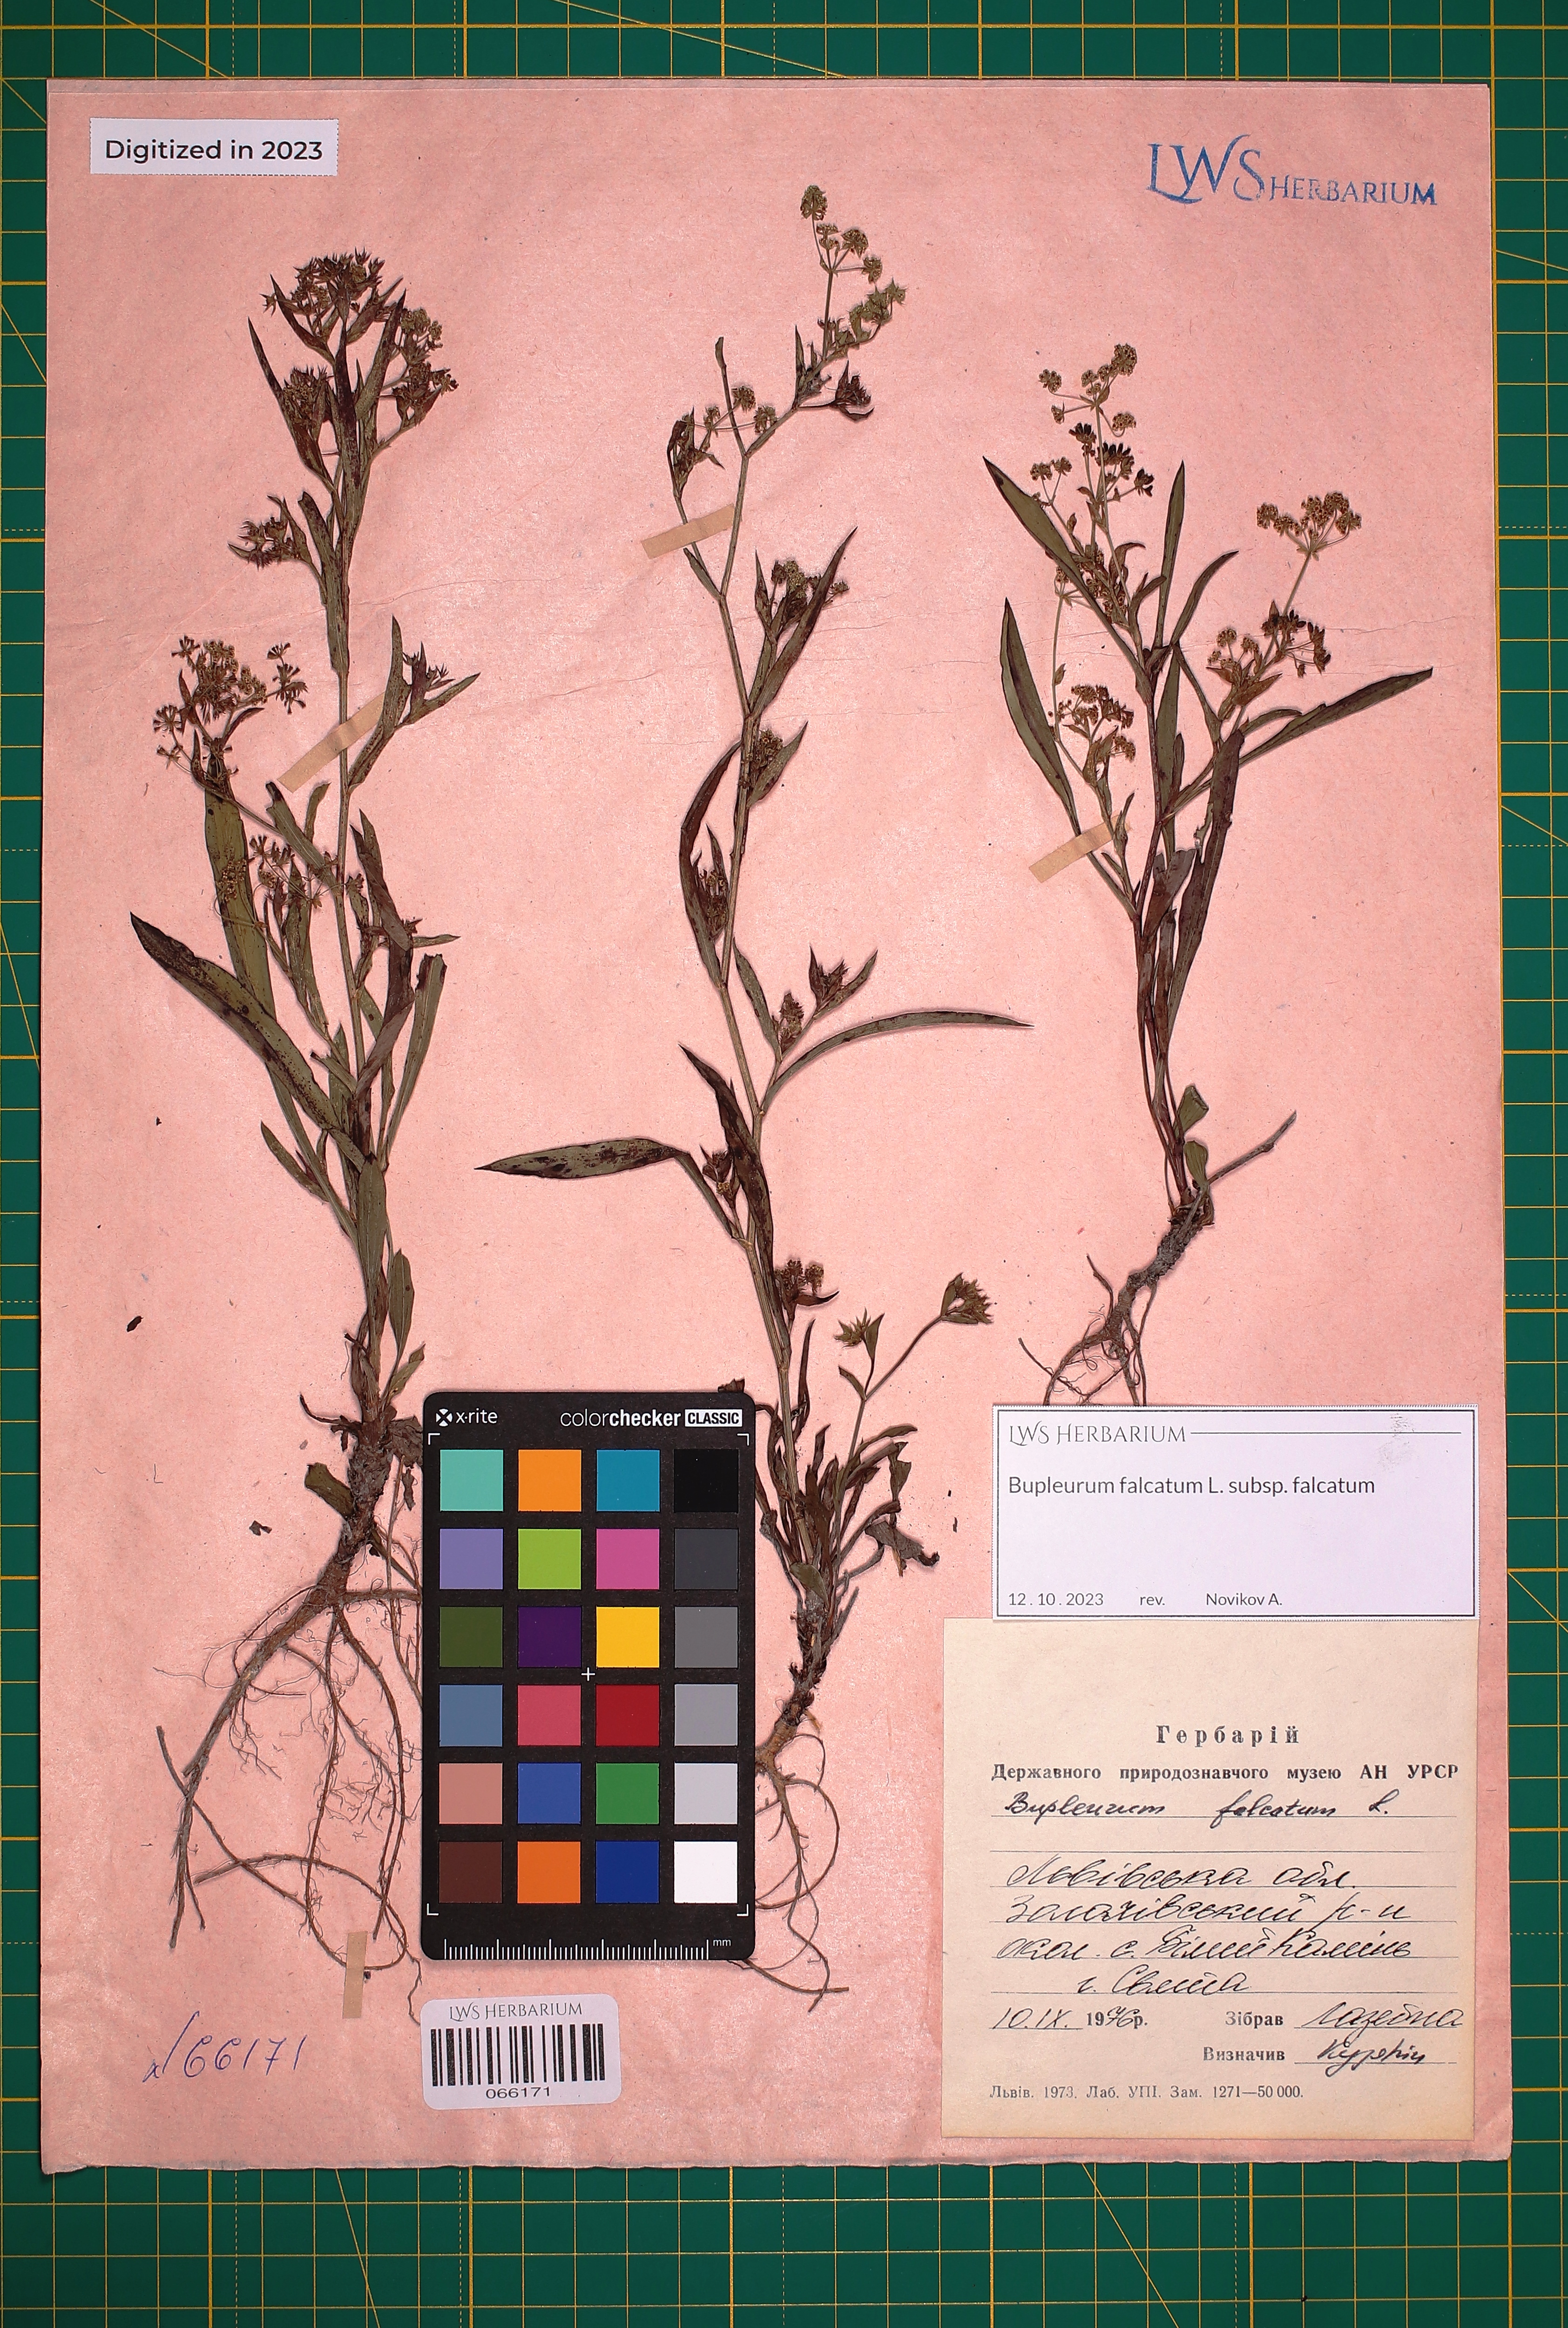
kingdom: Plantae
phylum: Tracheophyta
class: Magnoliopsida
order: Apiales
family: Apiaceae
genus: Bupleurum
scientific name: Bupleurum falcatum
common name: Sickle-leaved hare's-ear
